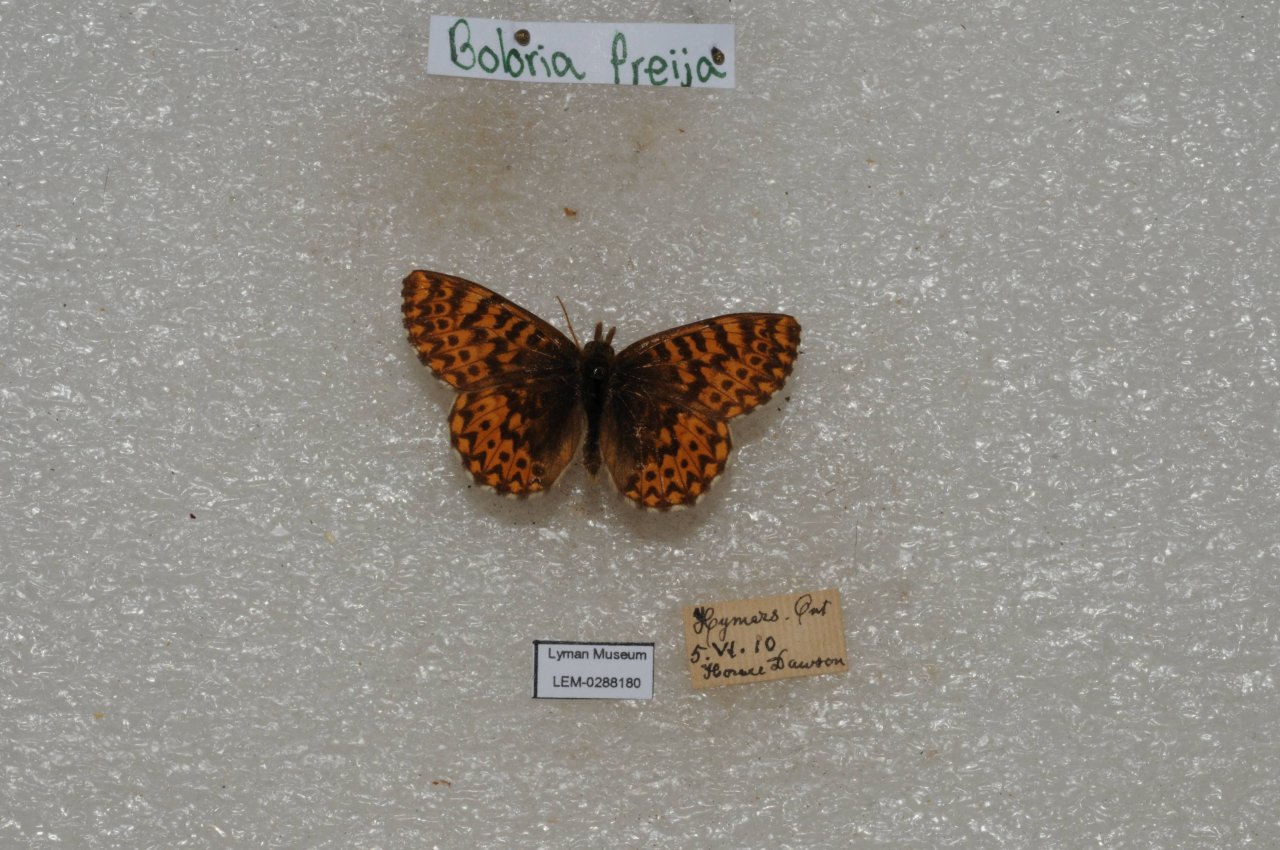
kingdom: Animalia
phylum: Arthropoda
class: Insecta
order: Lepidoptera
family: Nymphalidae
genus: Boloria
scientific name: Boloria freija
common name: Freija Fritillary
